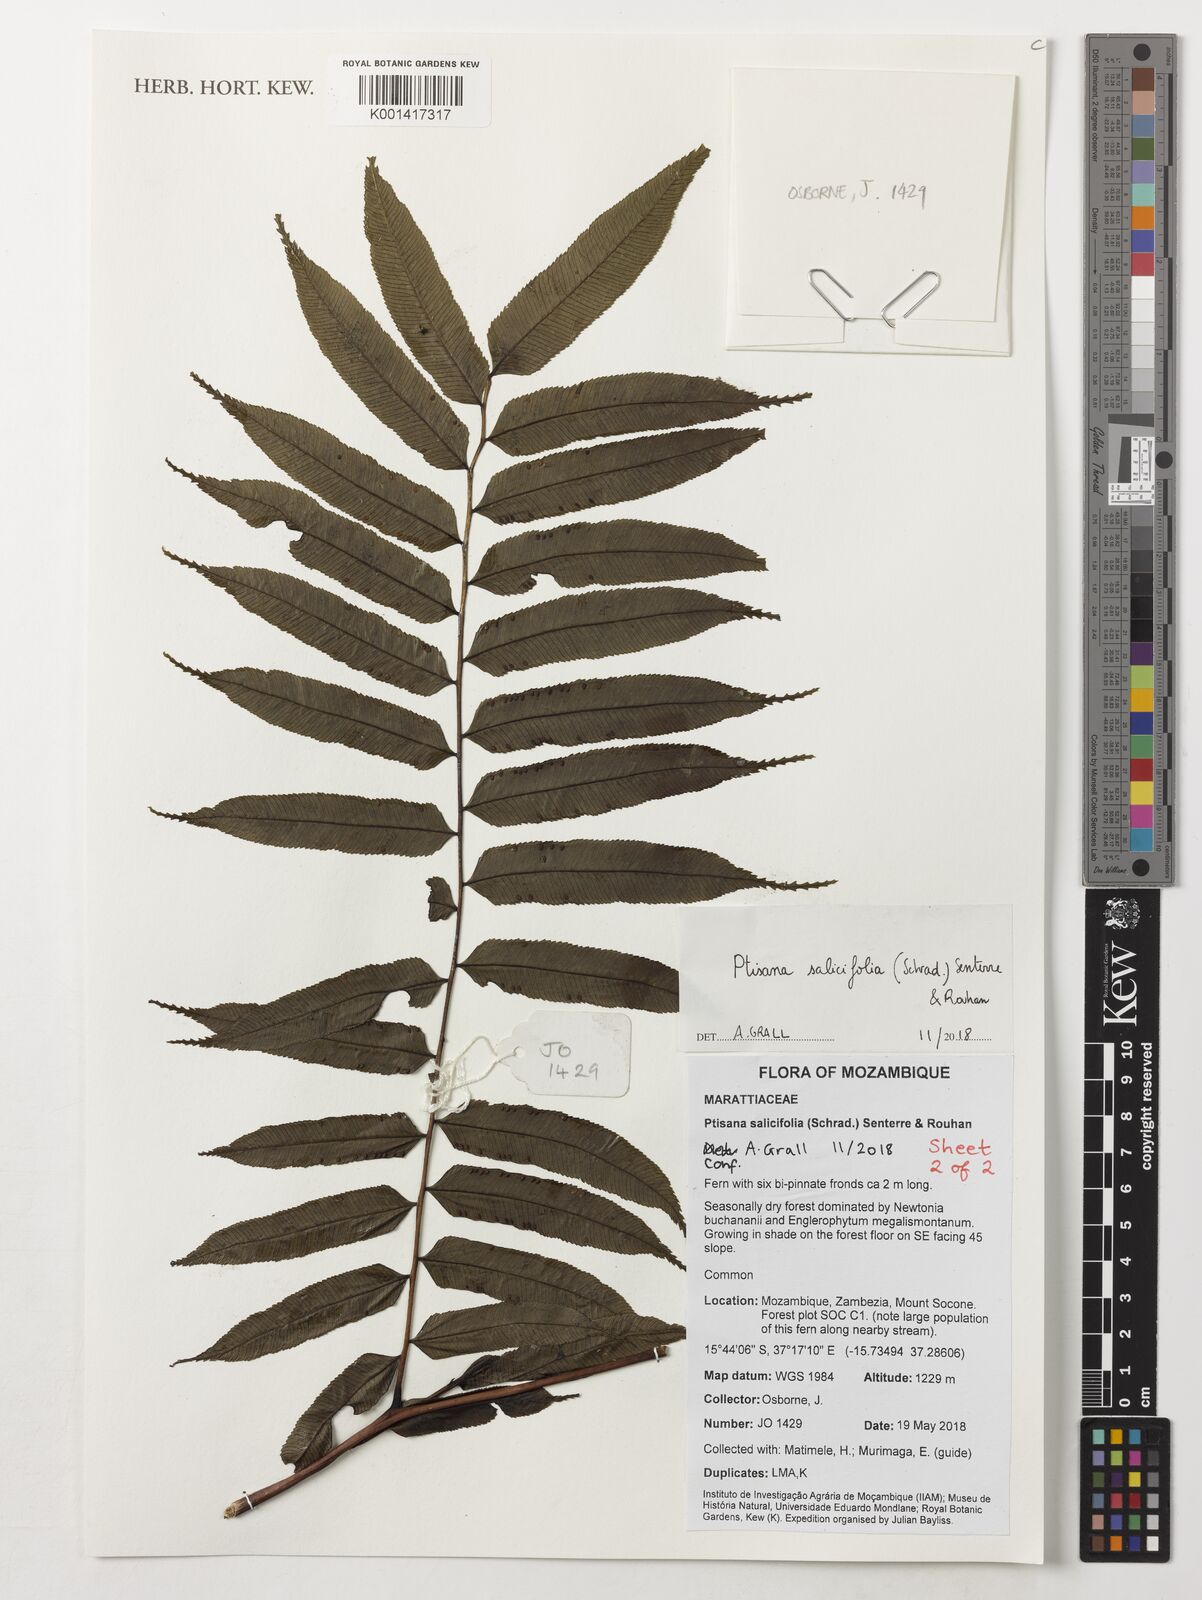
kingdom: Plantae
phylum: Tracheophyta
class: Polypodiopsida
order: Marattiales
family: Marattiaceae
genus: Ptisana
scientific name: Ptisana salicifolia
